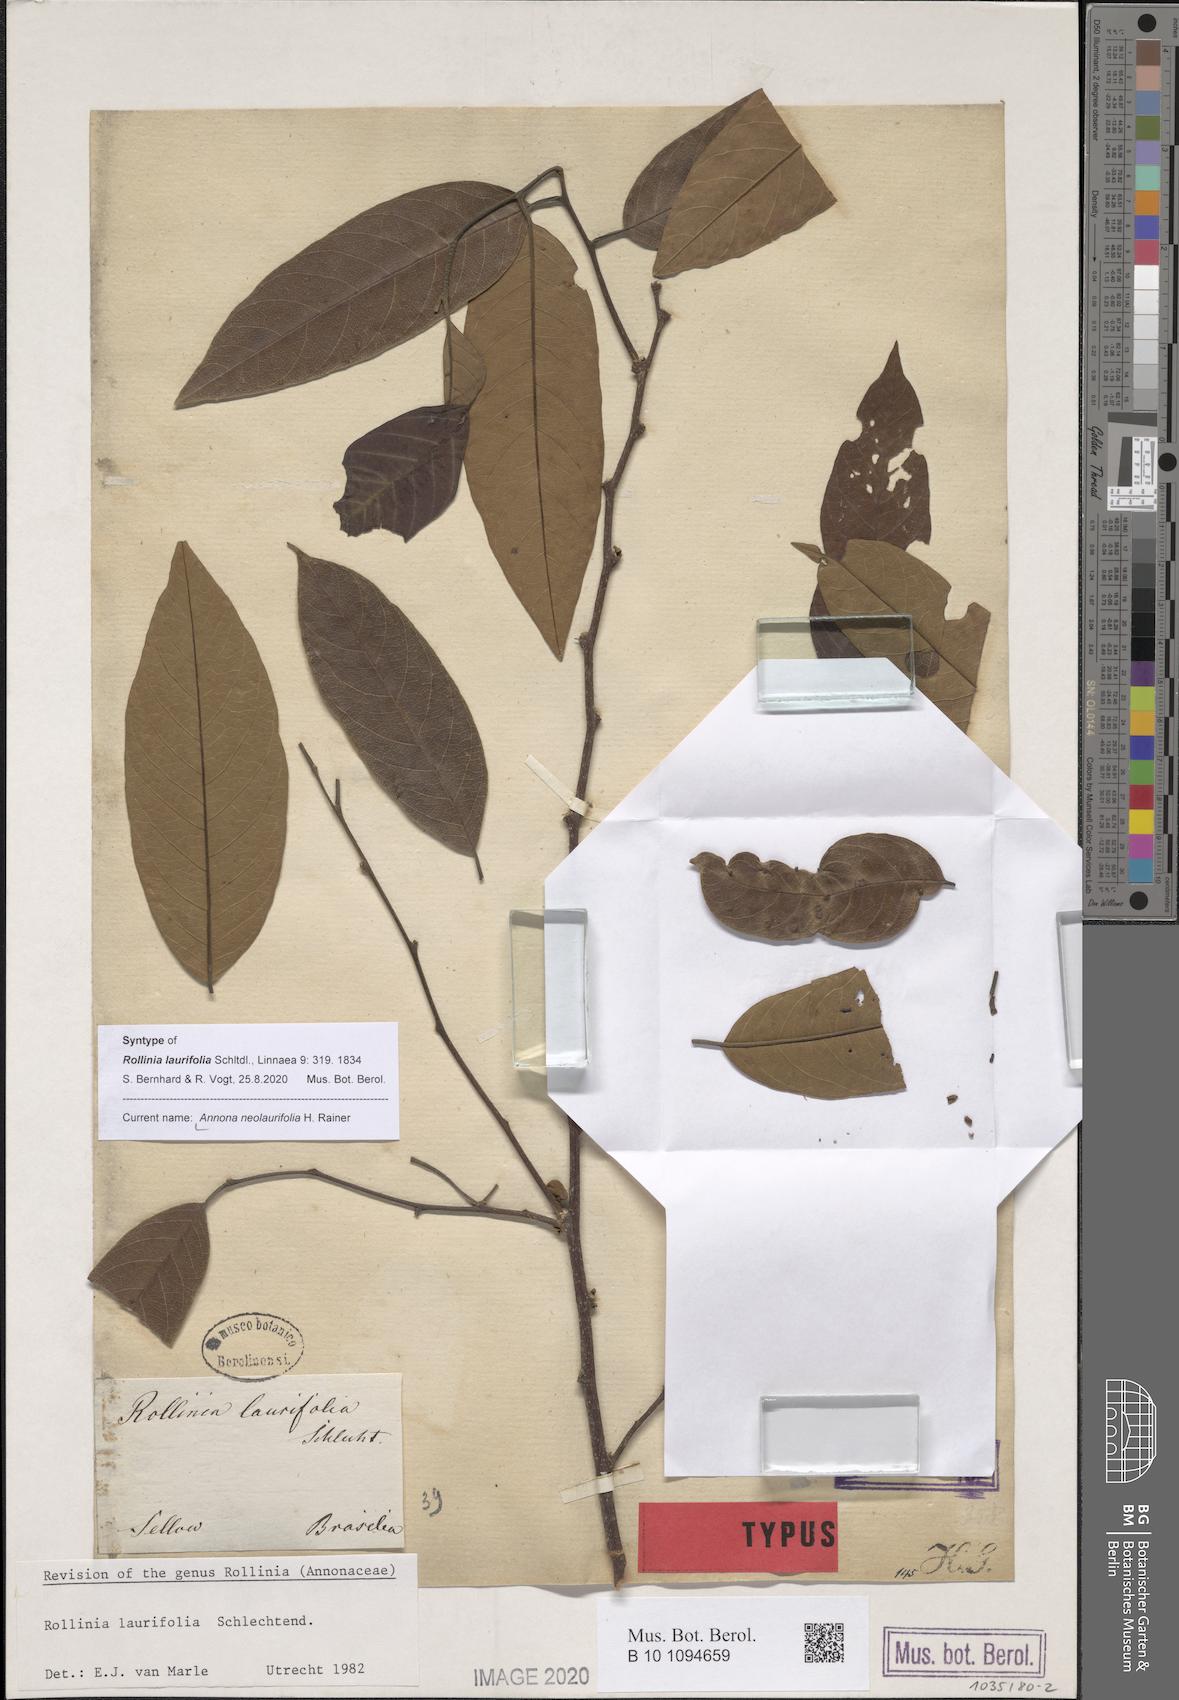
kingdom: Plantae
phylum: Tracheophyta
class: Magnoliopsida
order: Magnoliales
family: Annonaceae
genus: Annona
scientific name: Annona neolaurifolia
